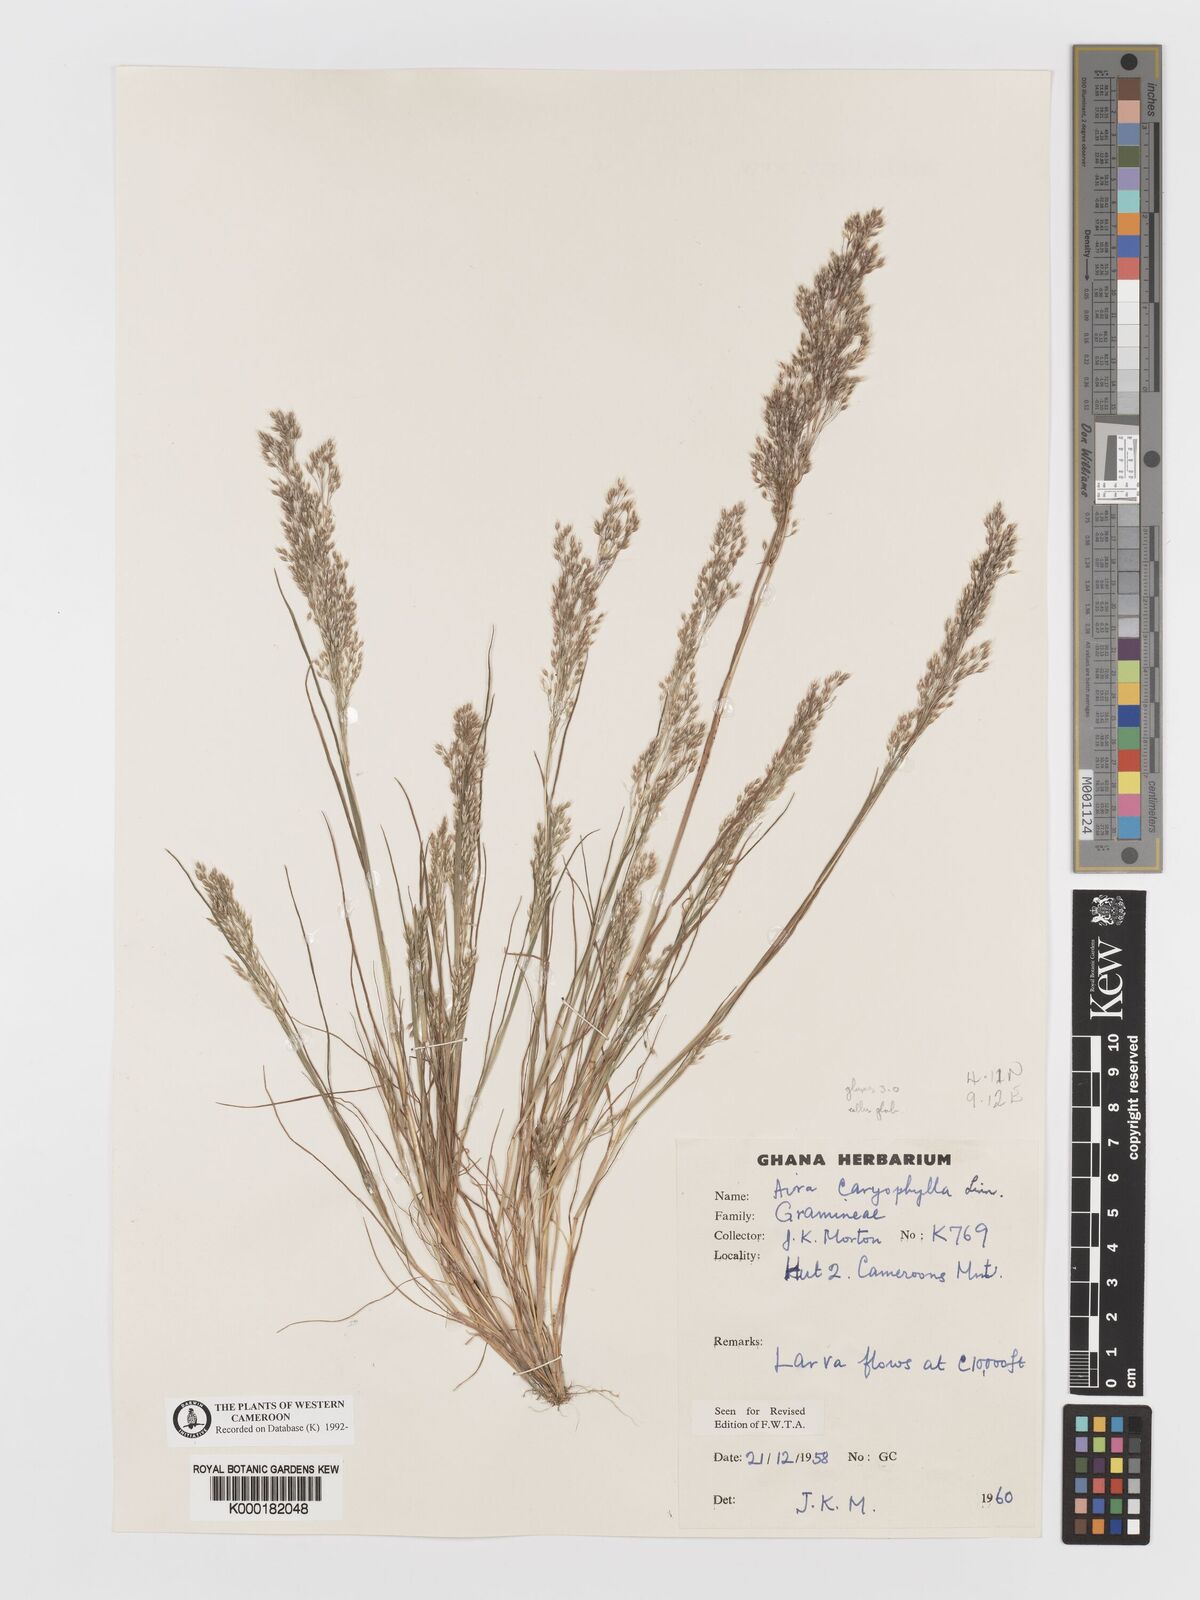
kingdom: Plantae
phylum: Tracheophyta
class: Liliopsida
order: Poales
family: Poaceae
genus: Aira
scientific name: Aira caryophyllea
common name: Silver hairgrass
